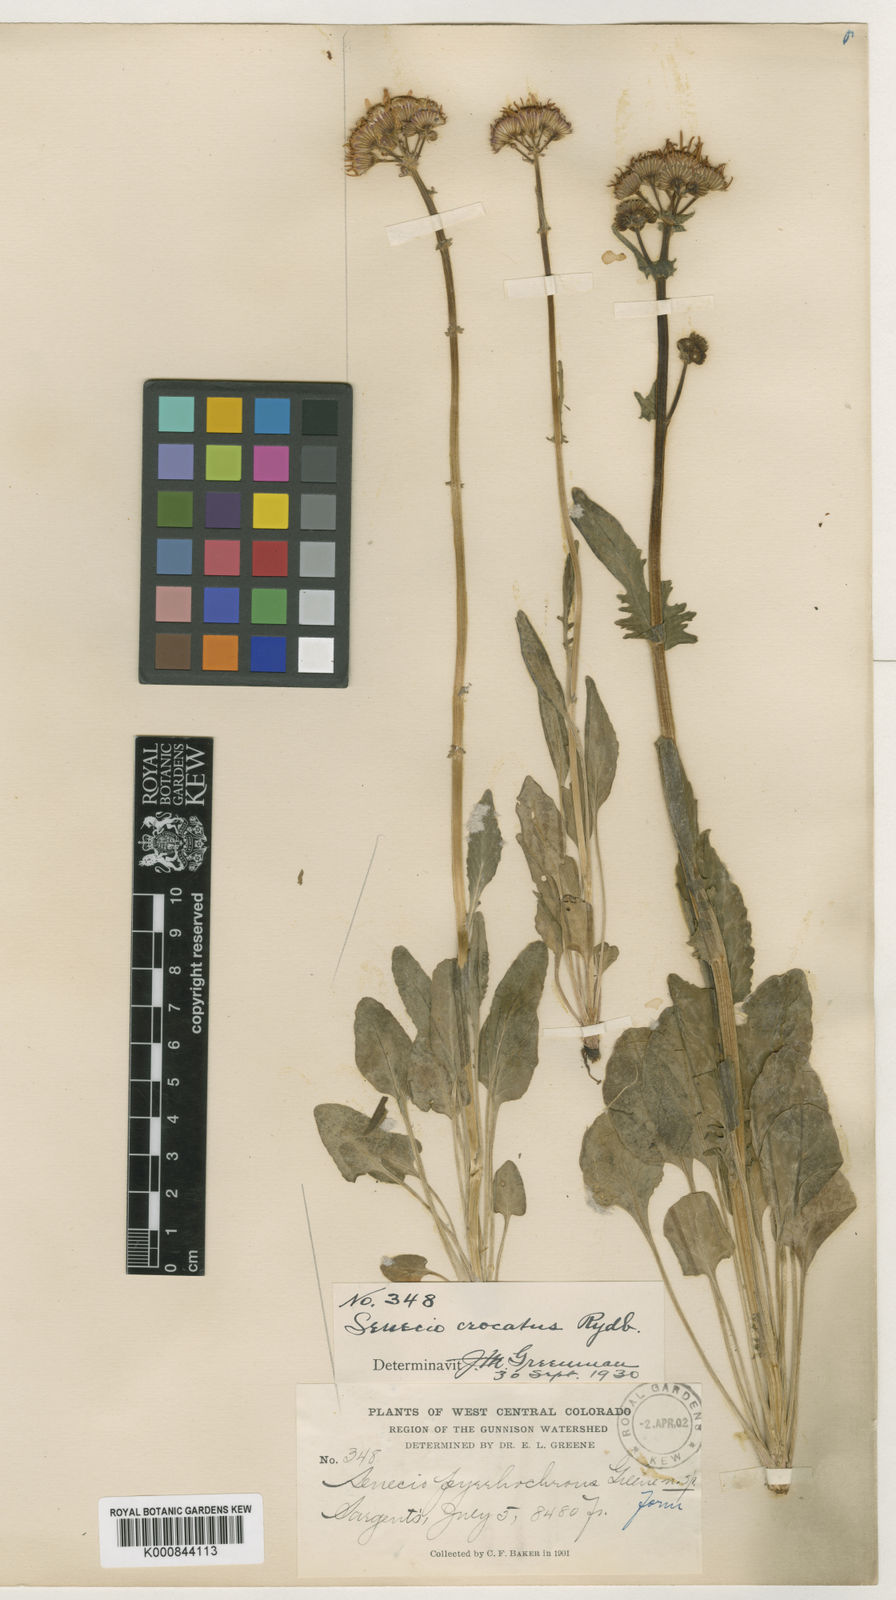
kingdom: Plantae
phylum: Tracheophyta
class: Magnoliopsida
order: Asterales
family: Asteraceae
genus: Packera
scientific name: Packera
